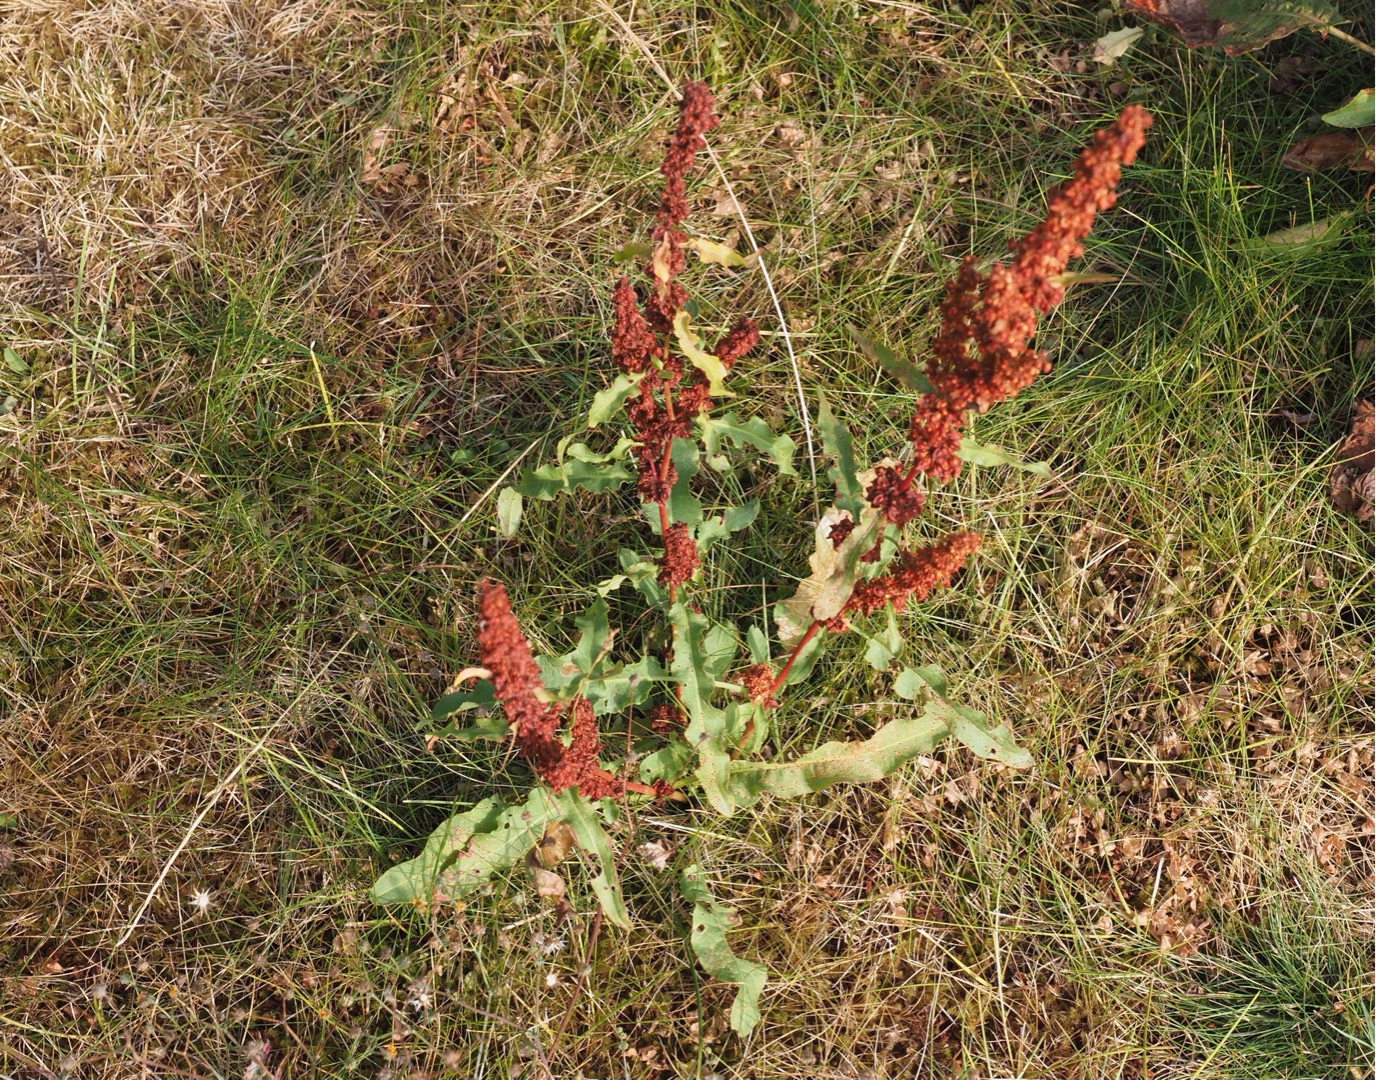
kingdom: Plantae
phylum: Tracheophyta
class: Magnoliopsida
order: Caryophyllales
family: Polygonaceae
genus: Rumex
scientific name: Rumex crispus
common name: Kruset skræppe
